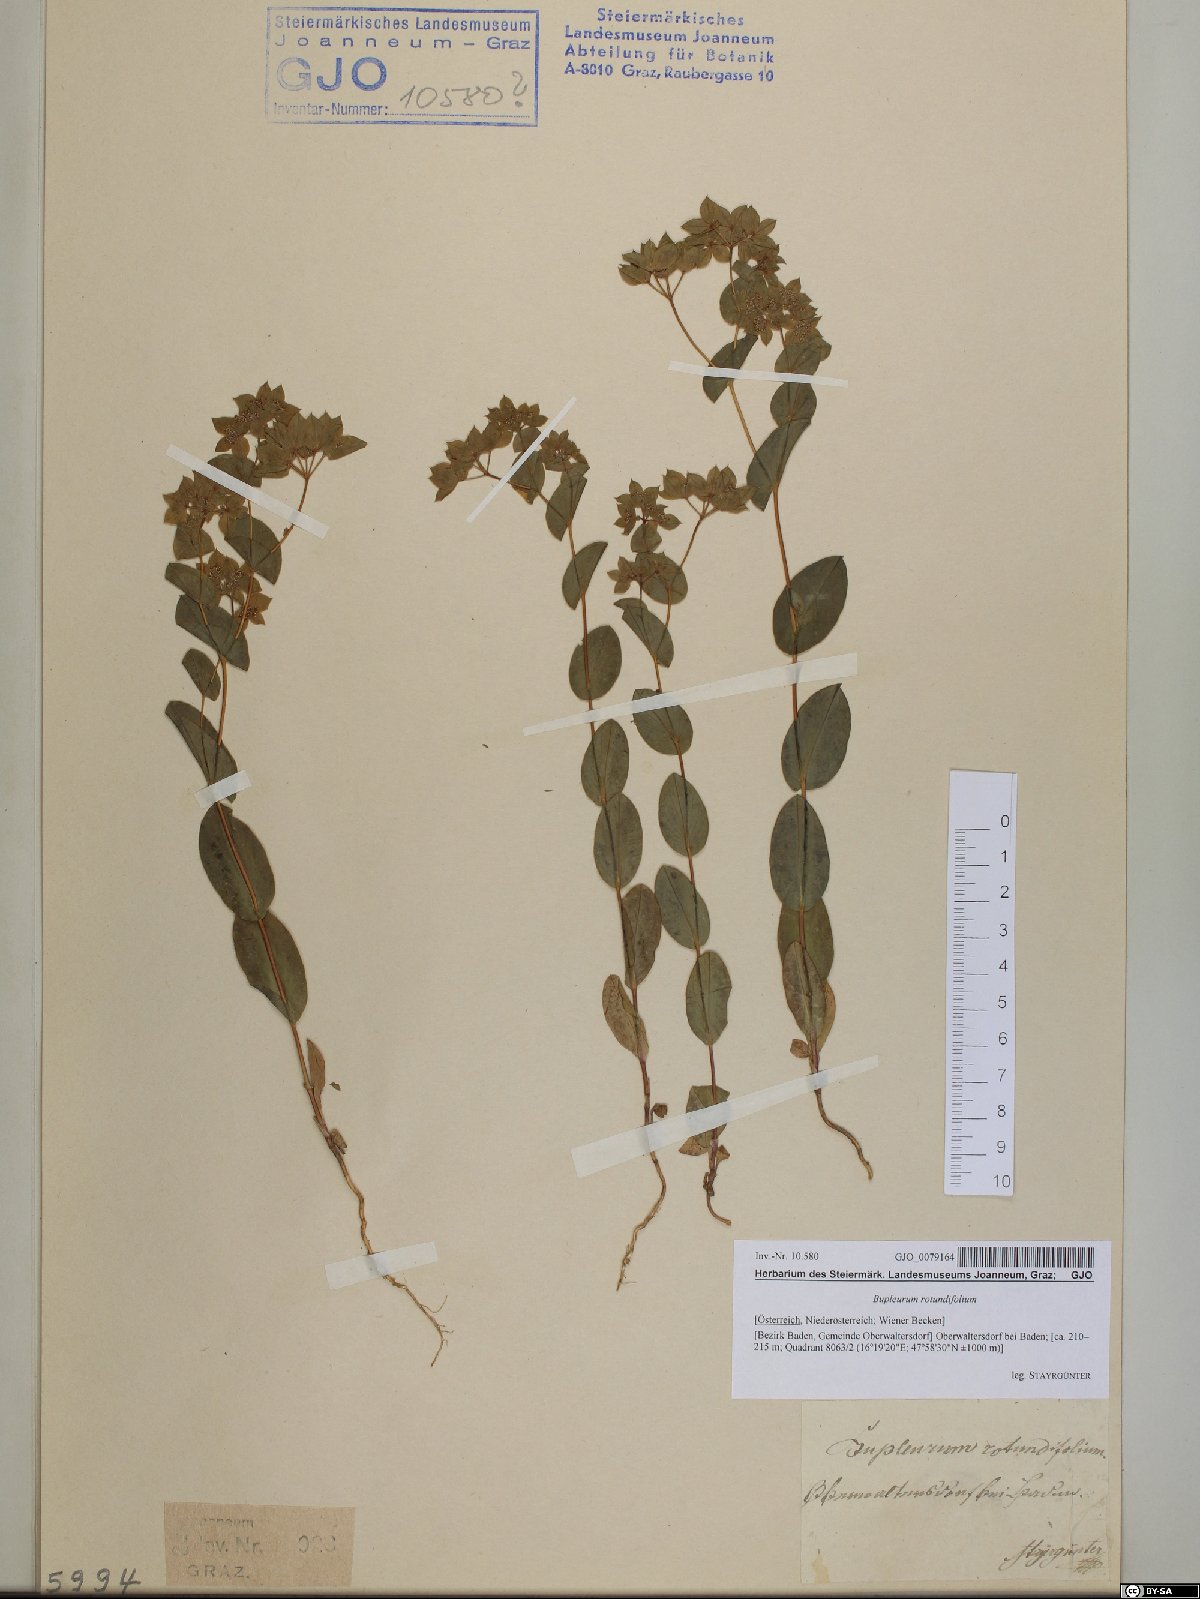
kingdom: Plantae
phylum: Tracheophyta
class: Magnoliopsida
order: Apiales
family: Apiaceae
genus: Bupleurum
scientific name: Bupleurum rotundifolium
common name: Thorow-wax
